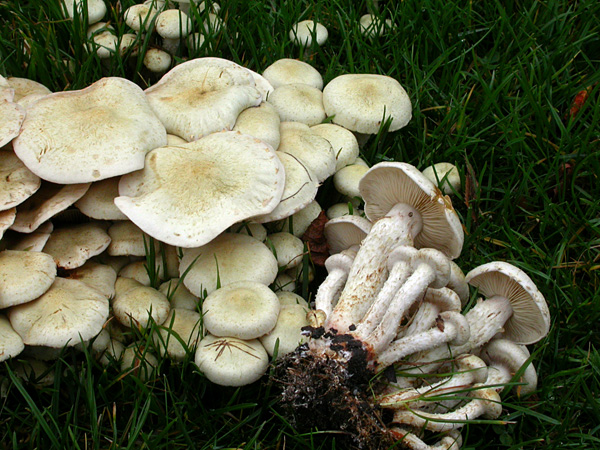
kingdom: Fungi
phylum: Basidiomycota
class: Agaricomycetes
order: Agaricales
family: Strophariaceae
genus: Pholiota
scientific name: Pholiota gummosa
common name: grøngul skælhat
